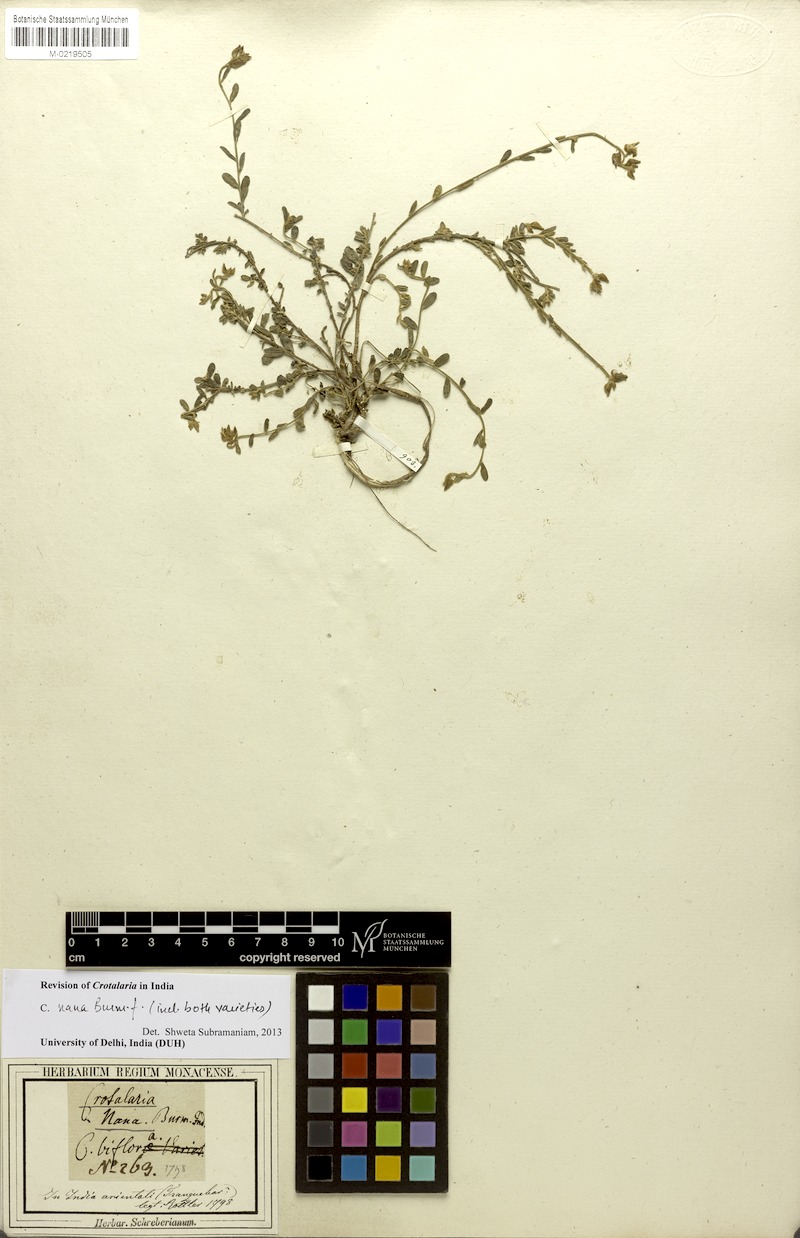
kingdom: Plantae
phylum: Tracheophyta
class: Magnoliopsida
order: Fabales
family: Fabaceae
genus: Crotalaria
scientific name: Crotalaria nana
